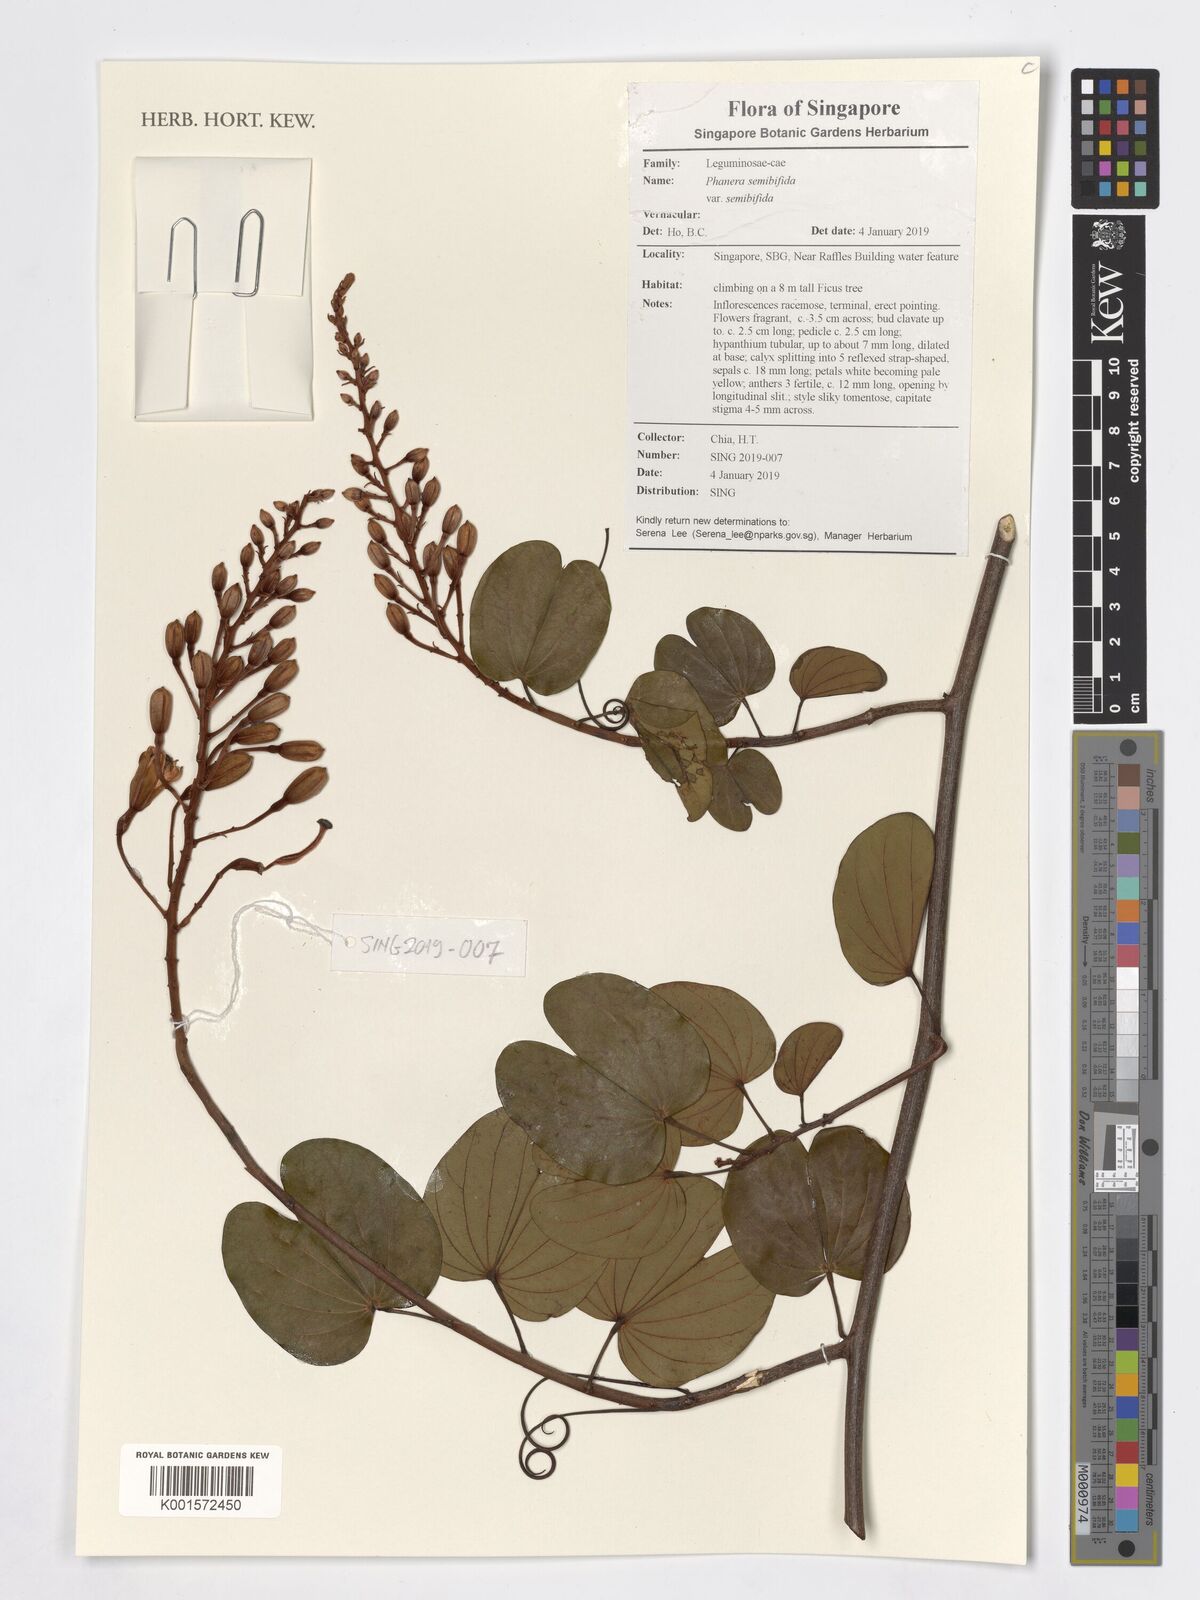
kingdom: Plantae
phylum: Tracheophyta
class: Magnoliopsida
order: Fabales
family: Fabaceae
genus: Phanera
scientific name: Phanera semibifida
